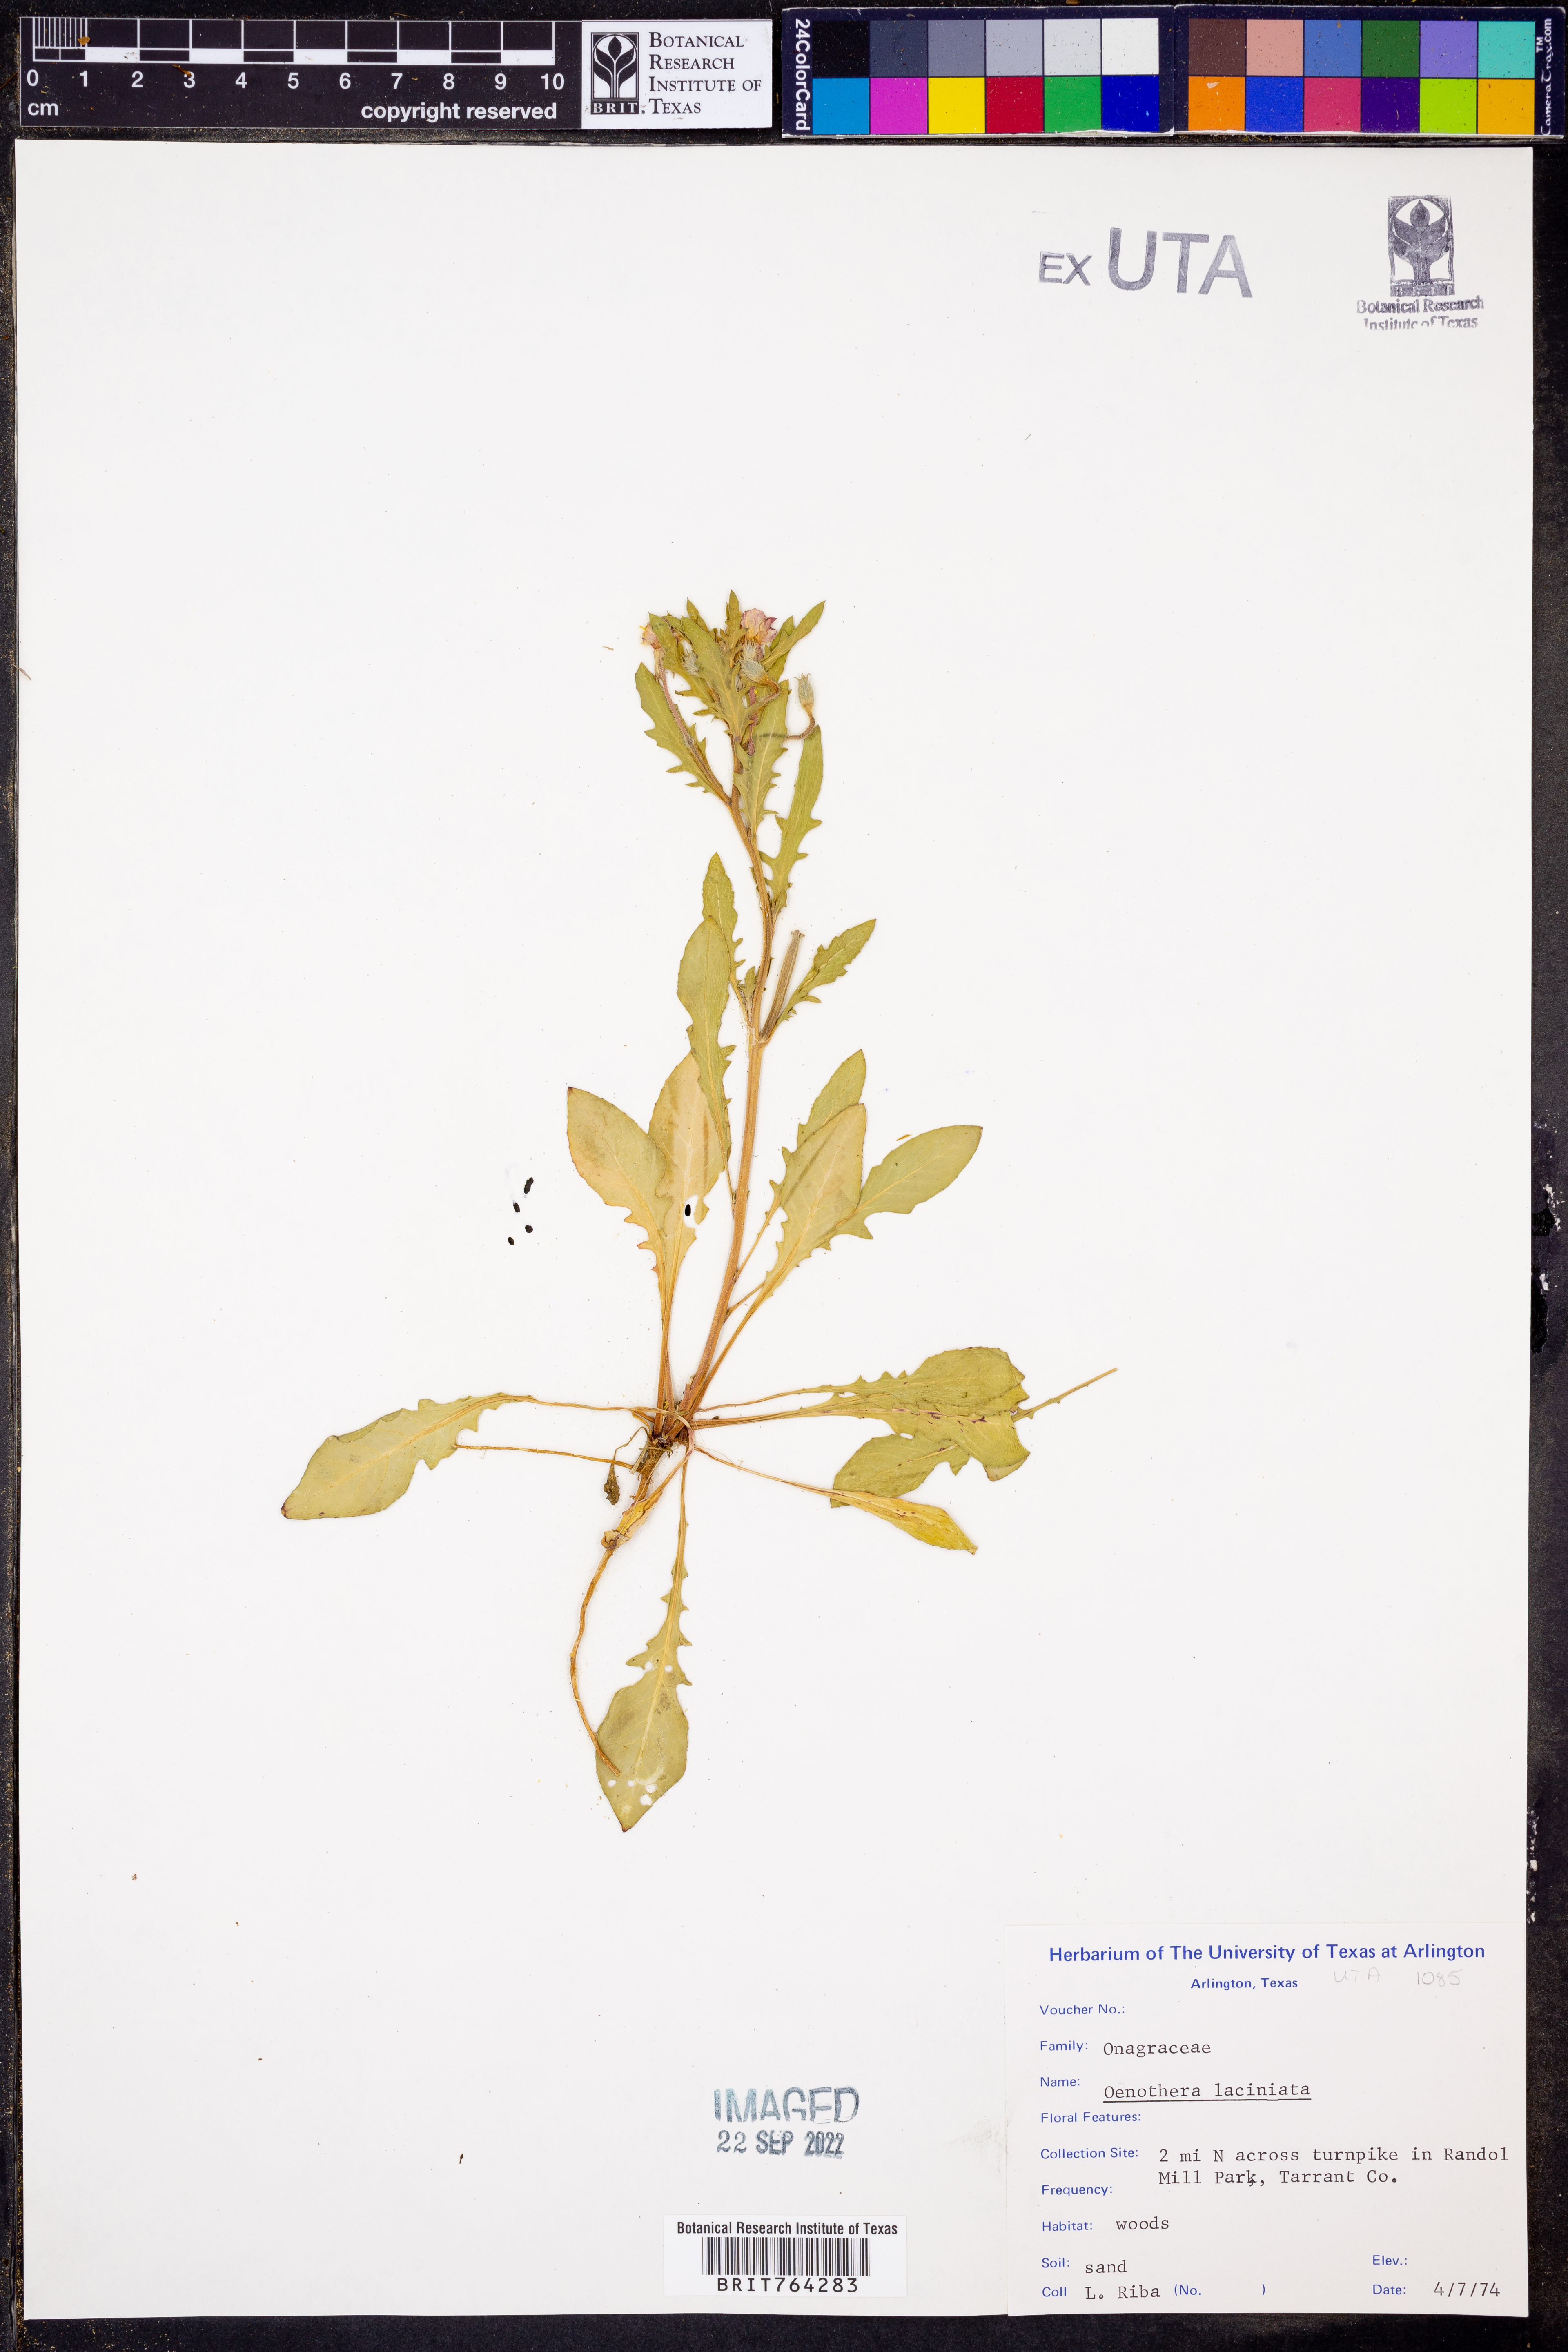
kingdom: Plantae
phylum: Tracheophyta
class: Magnoliopsida
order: Myrtales
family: Onagraceae
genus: Oenothera
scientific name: Oenothera laciniata
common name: Cut-leaved evening-primrose
